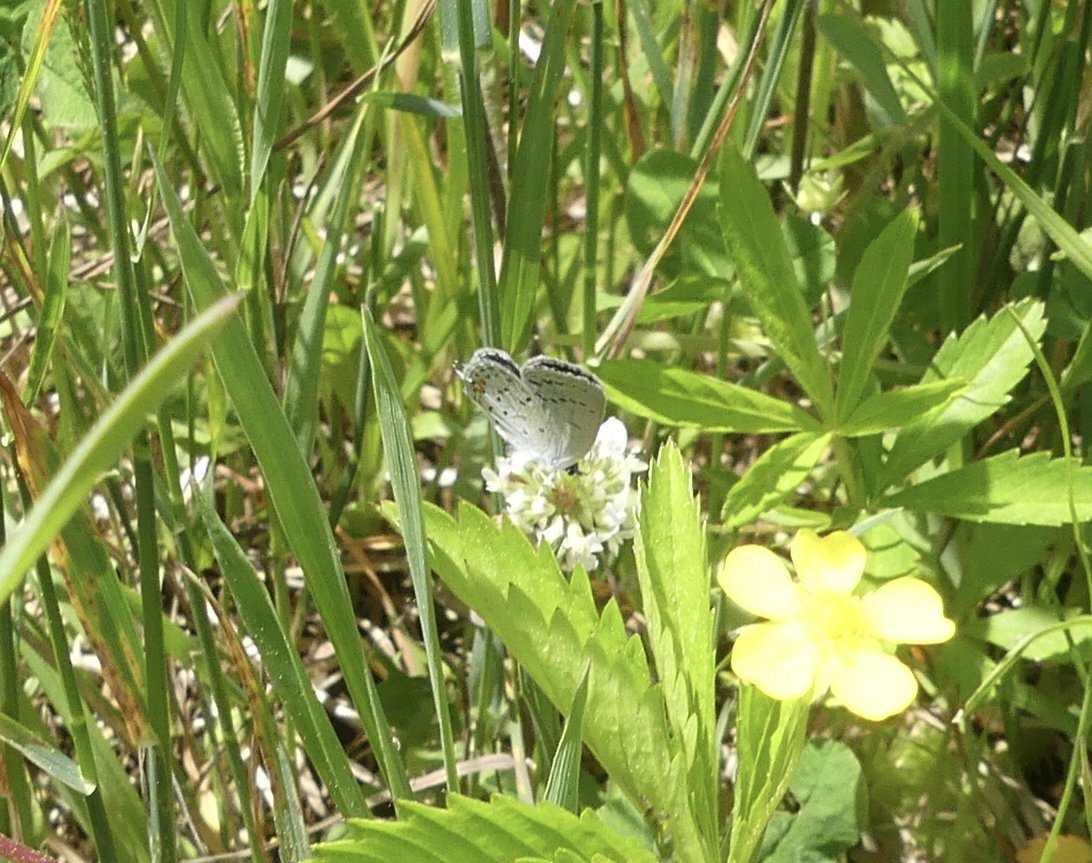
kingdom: Animalia
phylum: Arthropoda
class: Insecta
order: Lepidoptera
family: Lycaenidae
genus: Elkalyce
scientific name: Elkalyce comyntas
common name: Eastern Tailed-Blue
